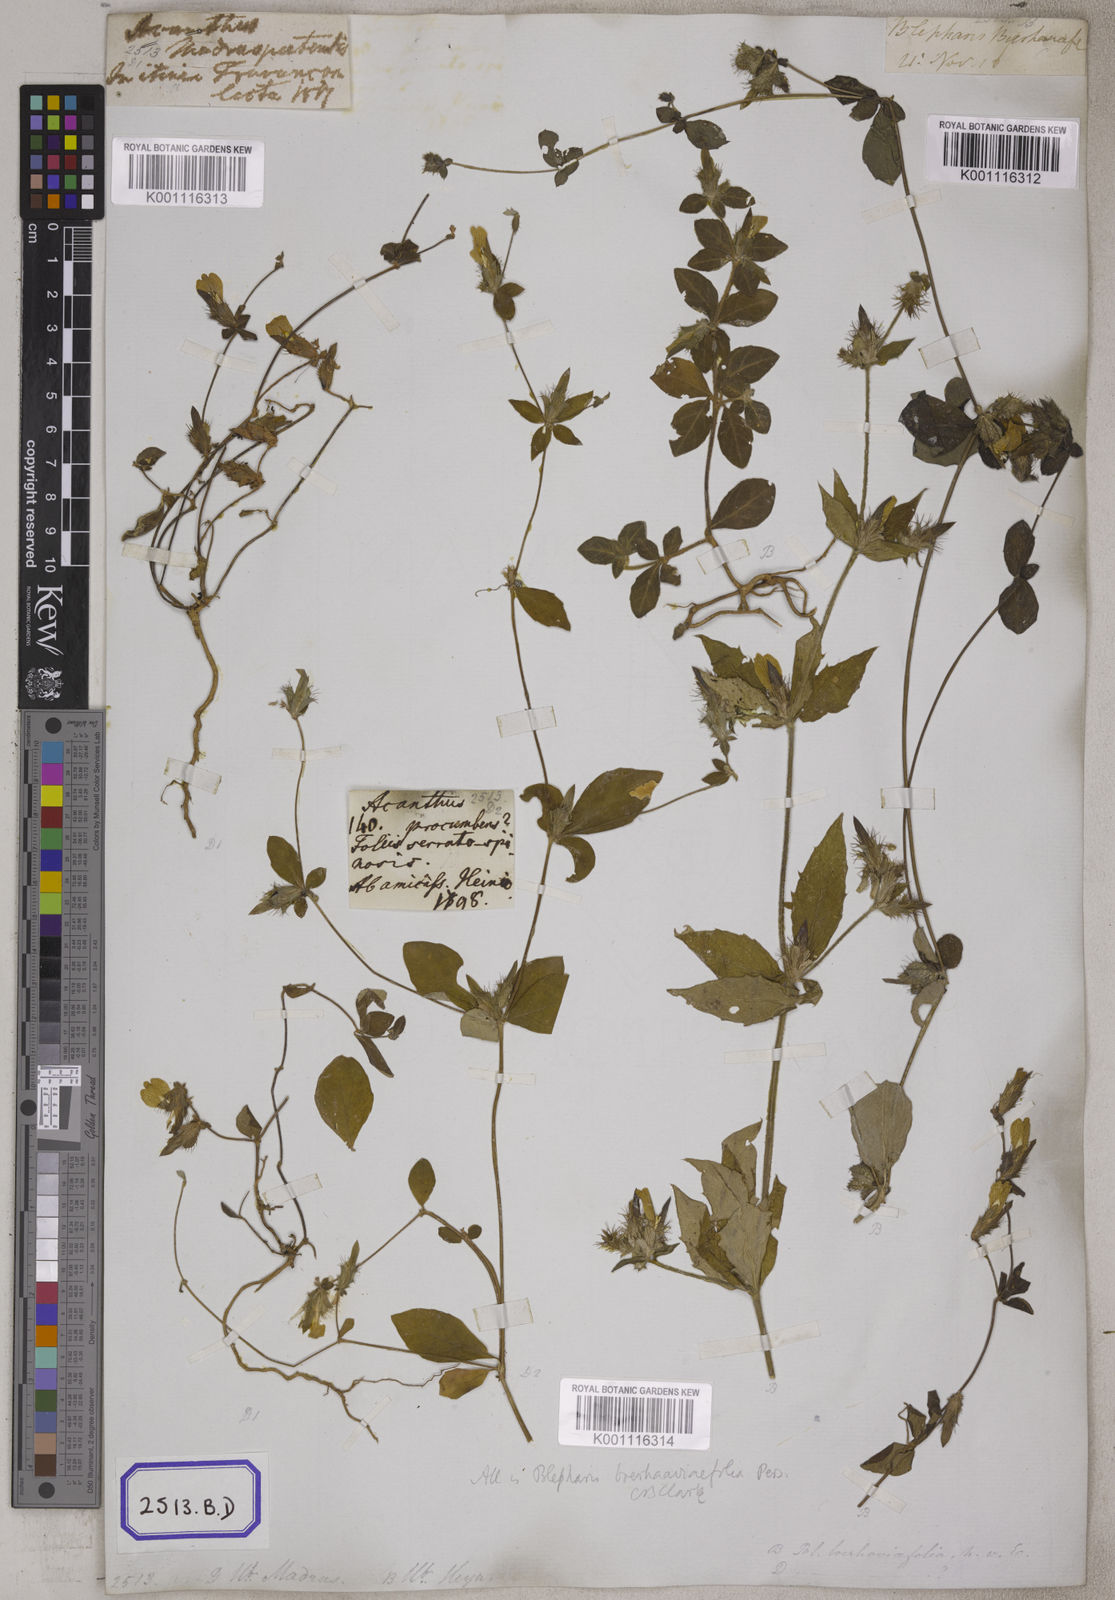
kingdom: Plantae
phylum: Tracheophyta
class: Magnoliopsida
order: Lamiales
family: Acanthaceae
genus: Blepharis
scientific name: Blepharis
